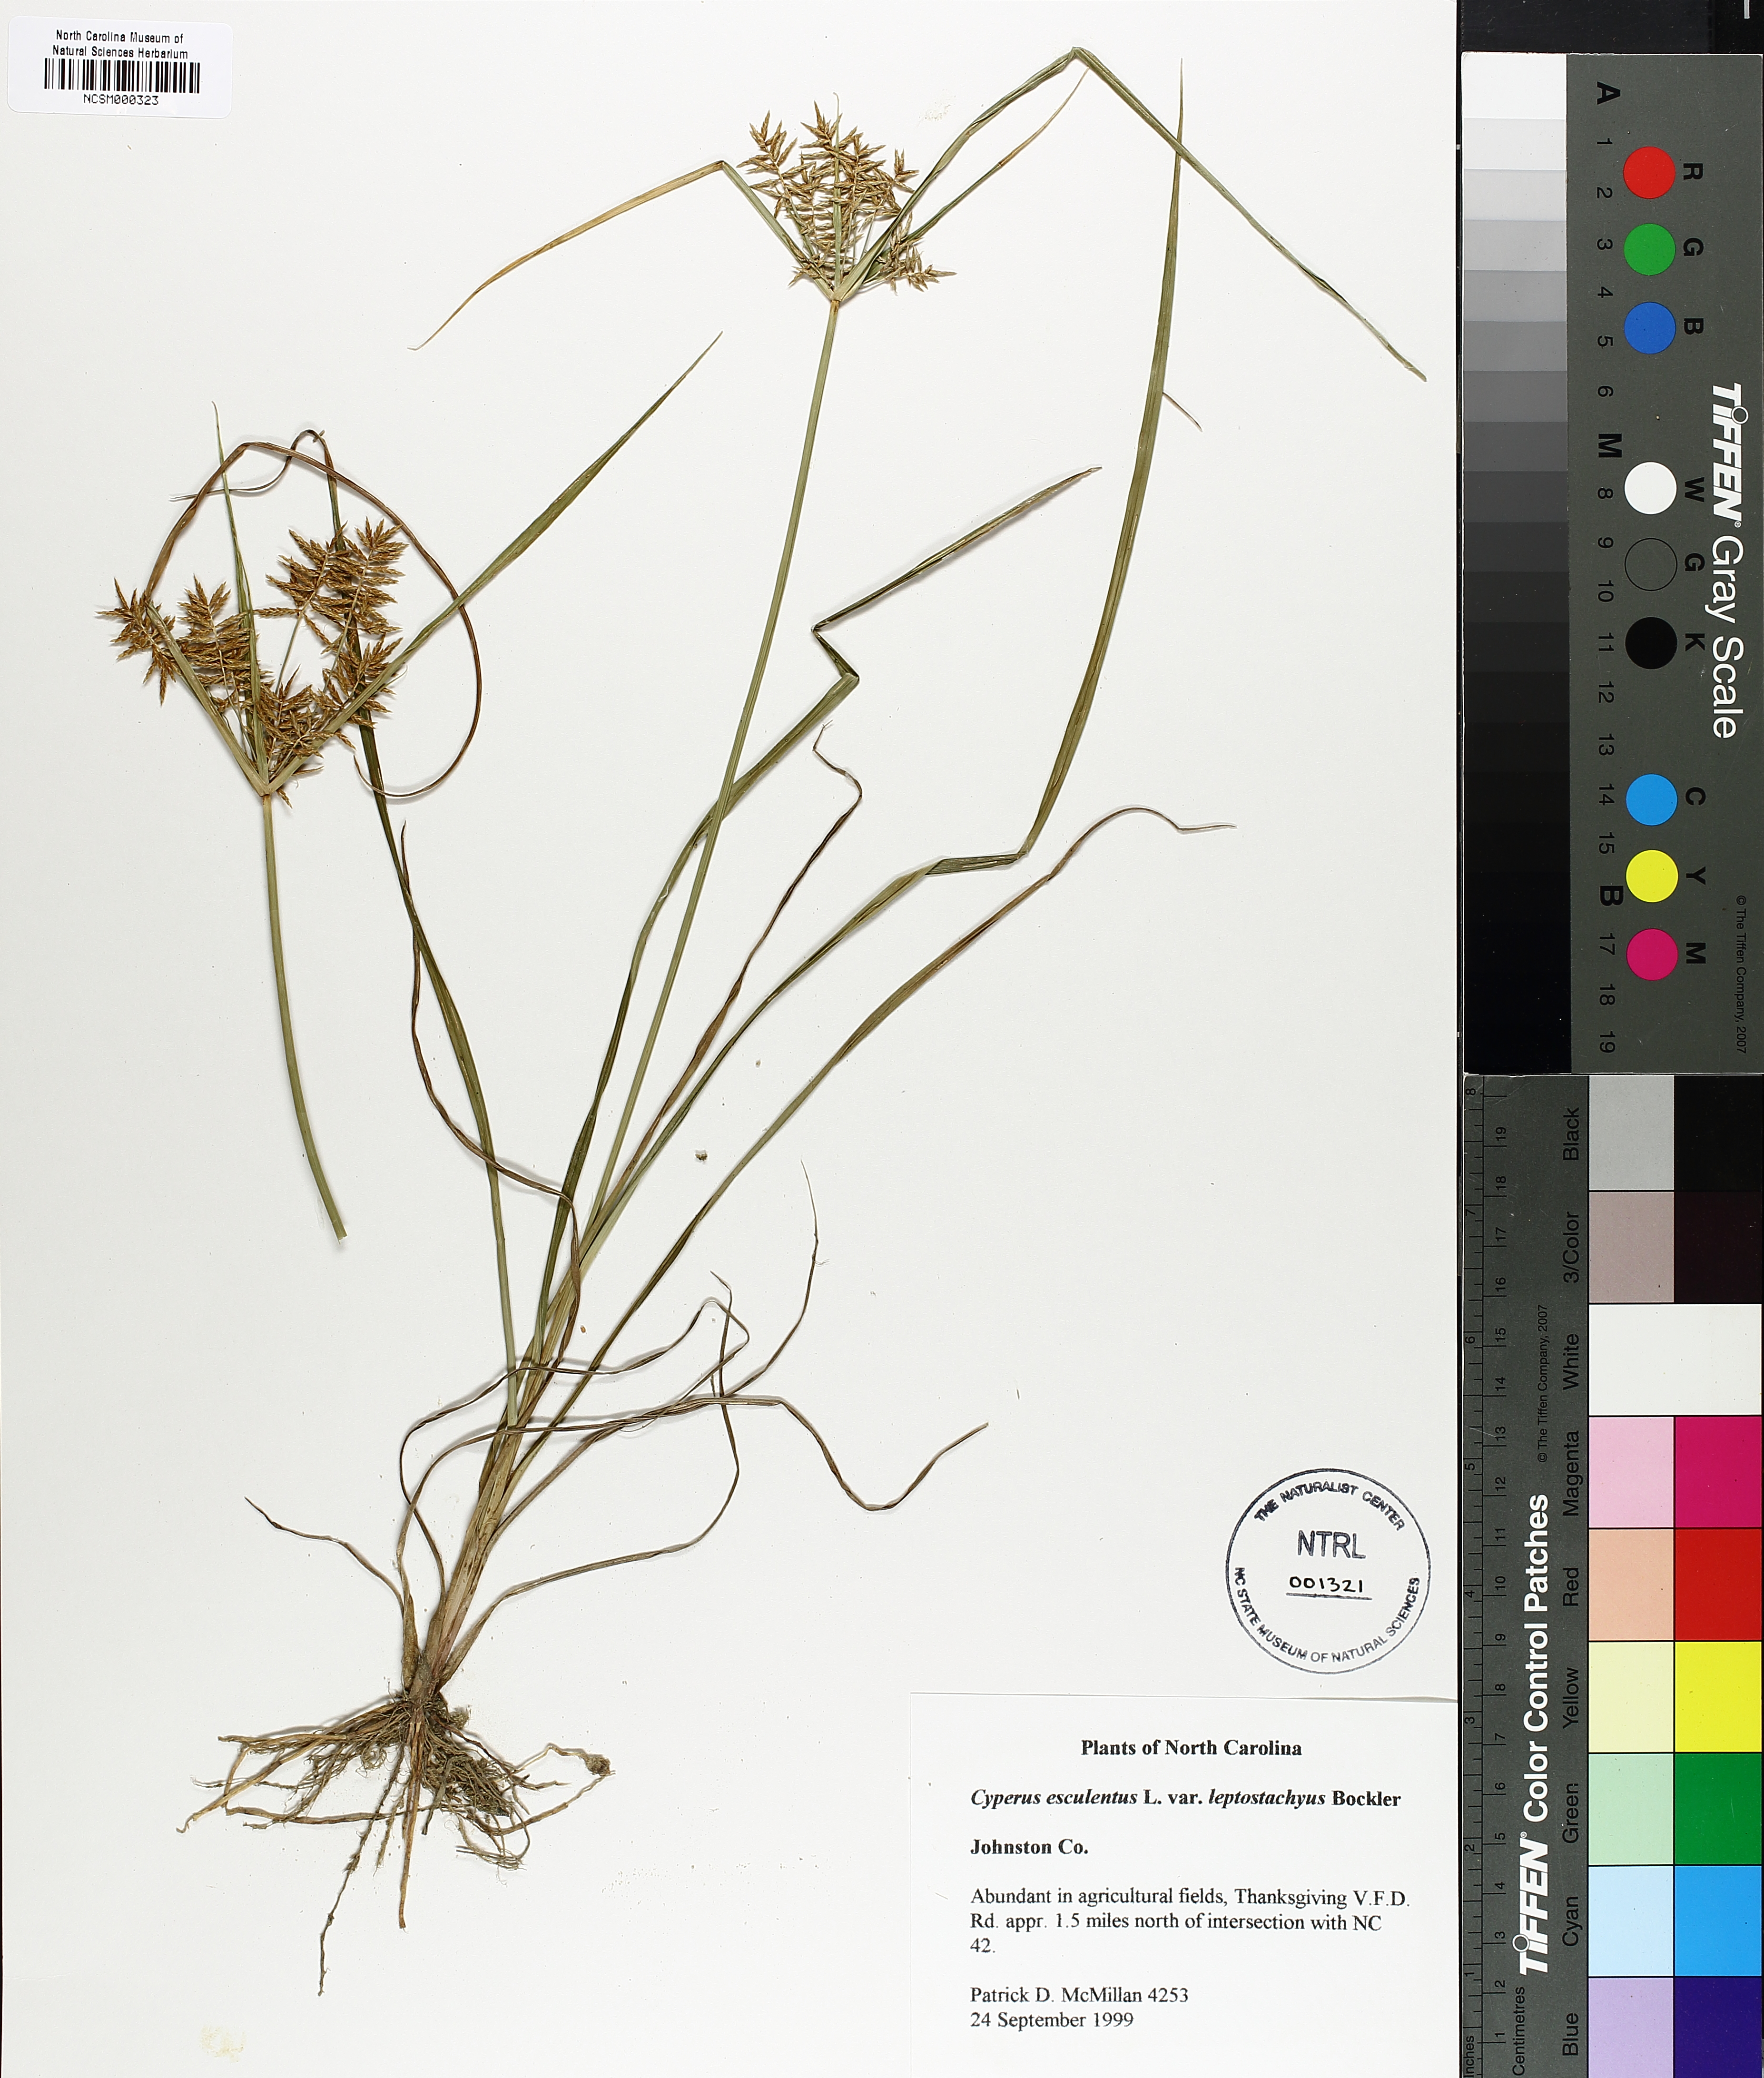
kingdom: Plantae
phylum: Tracheophyta
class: Liliopsida
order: Poales
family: Cyperaceae
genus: Cyperus
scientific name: Cyperus esculentus
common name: Yellow nutsedge
